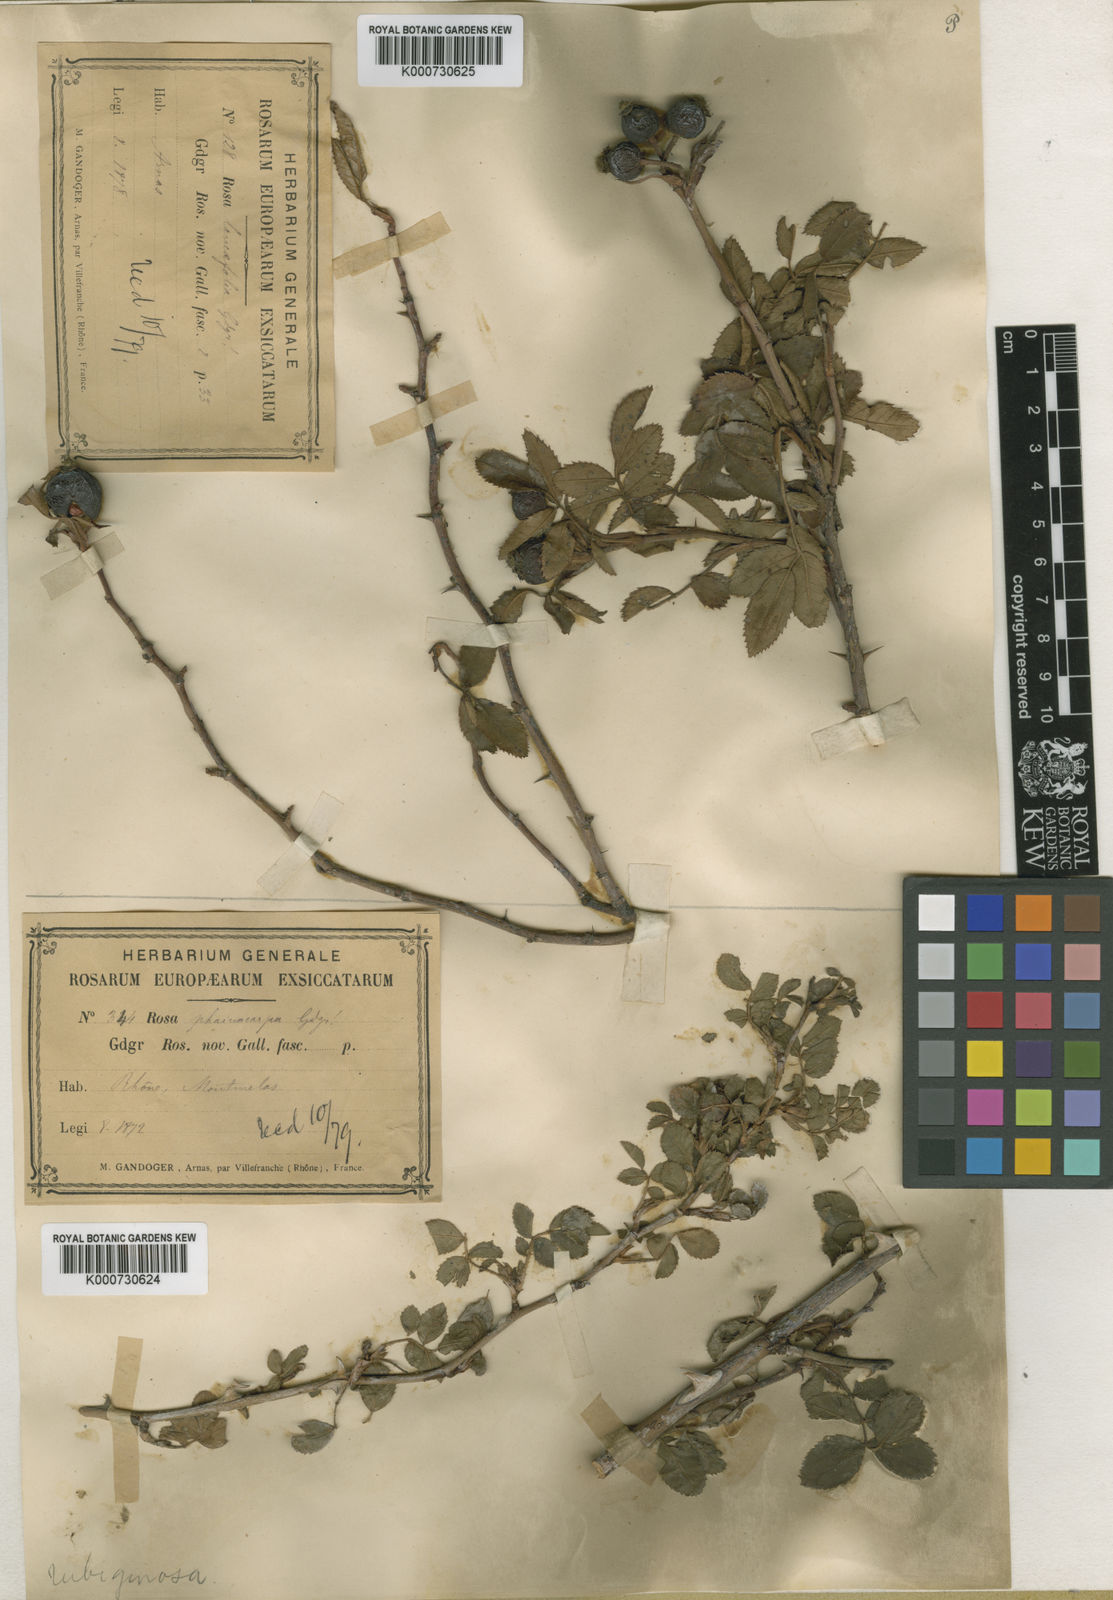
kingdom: Plantae
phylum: Tracheophyta
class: Magnoliopsida
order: Rosales
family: Rosaceae
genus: Rosa
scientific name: Rosa rubiginosa
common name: Sweet-briar
